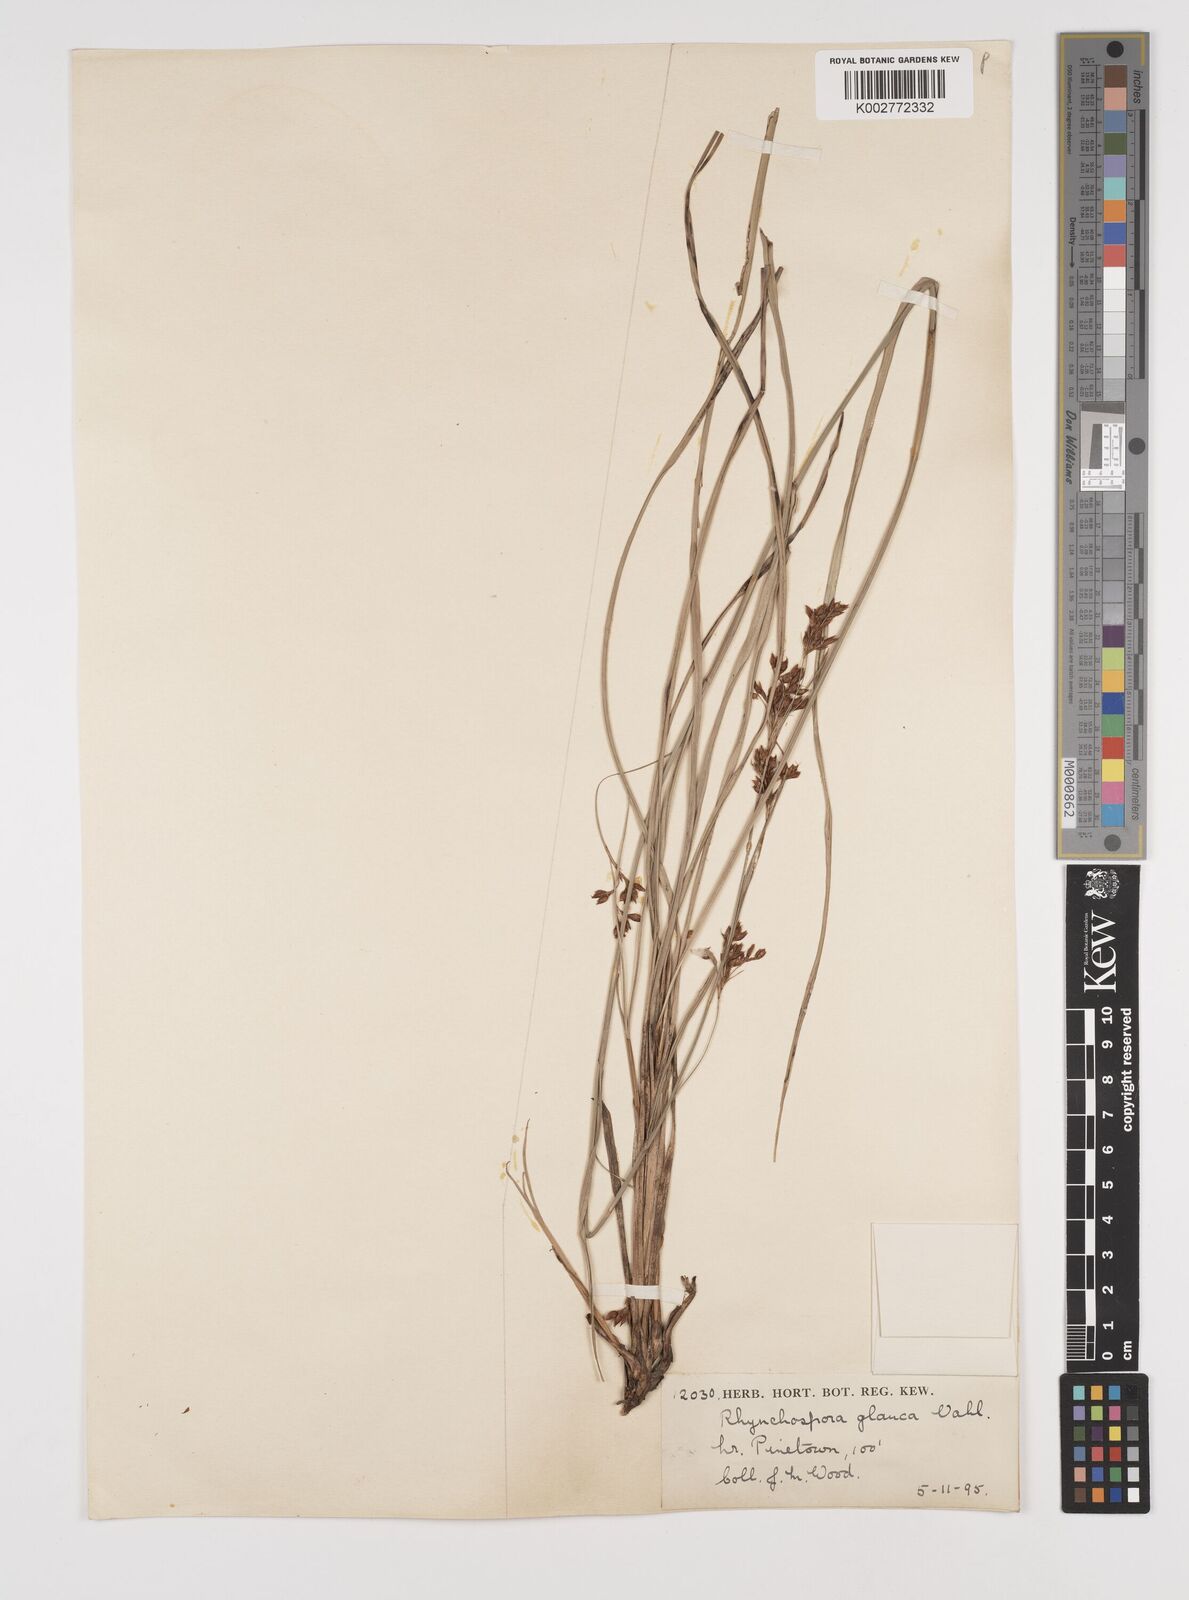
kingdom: Plantae
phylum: Tracheophyta
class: Liliopsida
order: Poales
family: Cyperaceae
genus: Rhynchospora
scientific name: Rhynchospora rugosa
